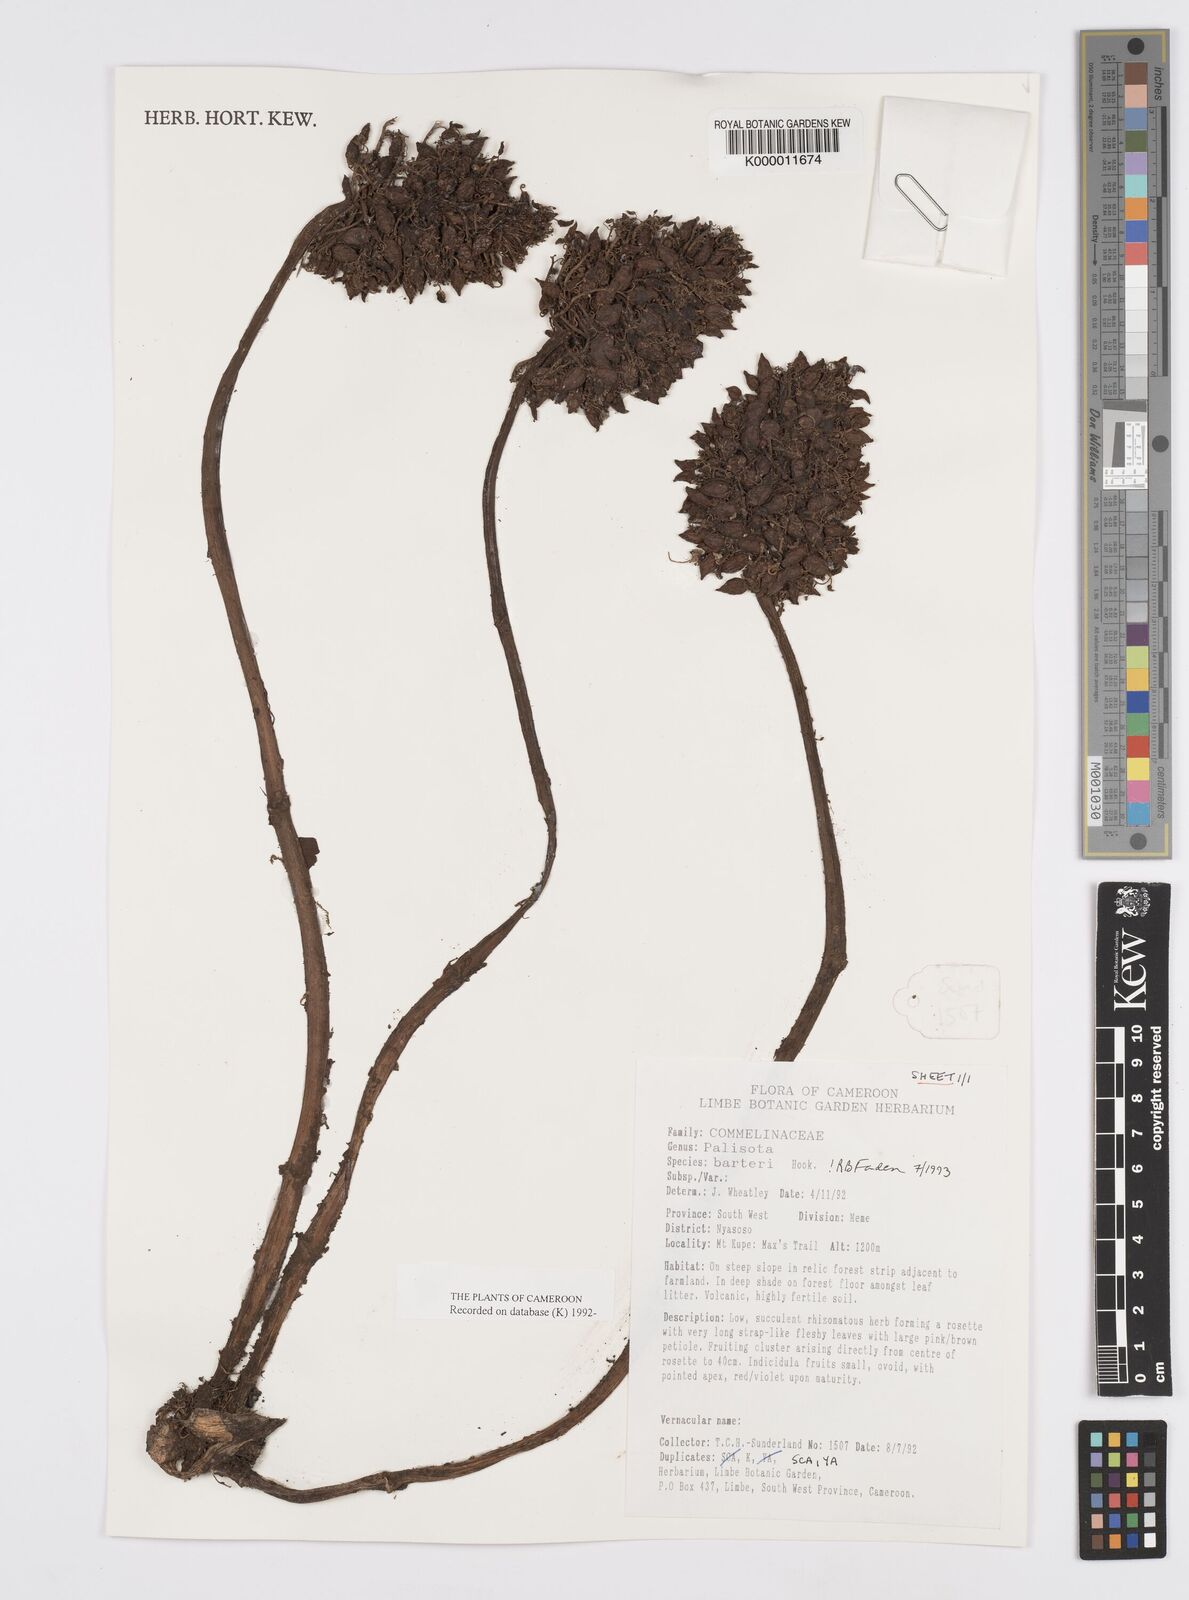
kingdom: Plantae
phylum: Tracheophyta
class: Liliopsida
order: Commelinales
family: Commelinaceae
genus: Palisota
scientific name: Palisota barteri
